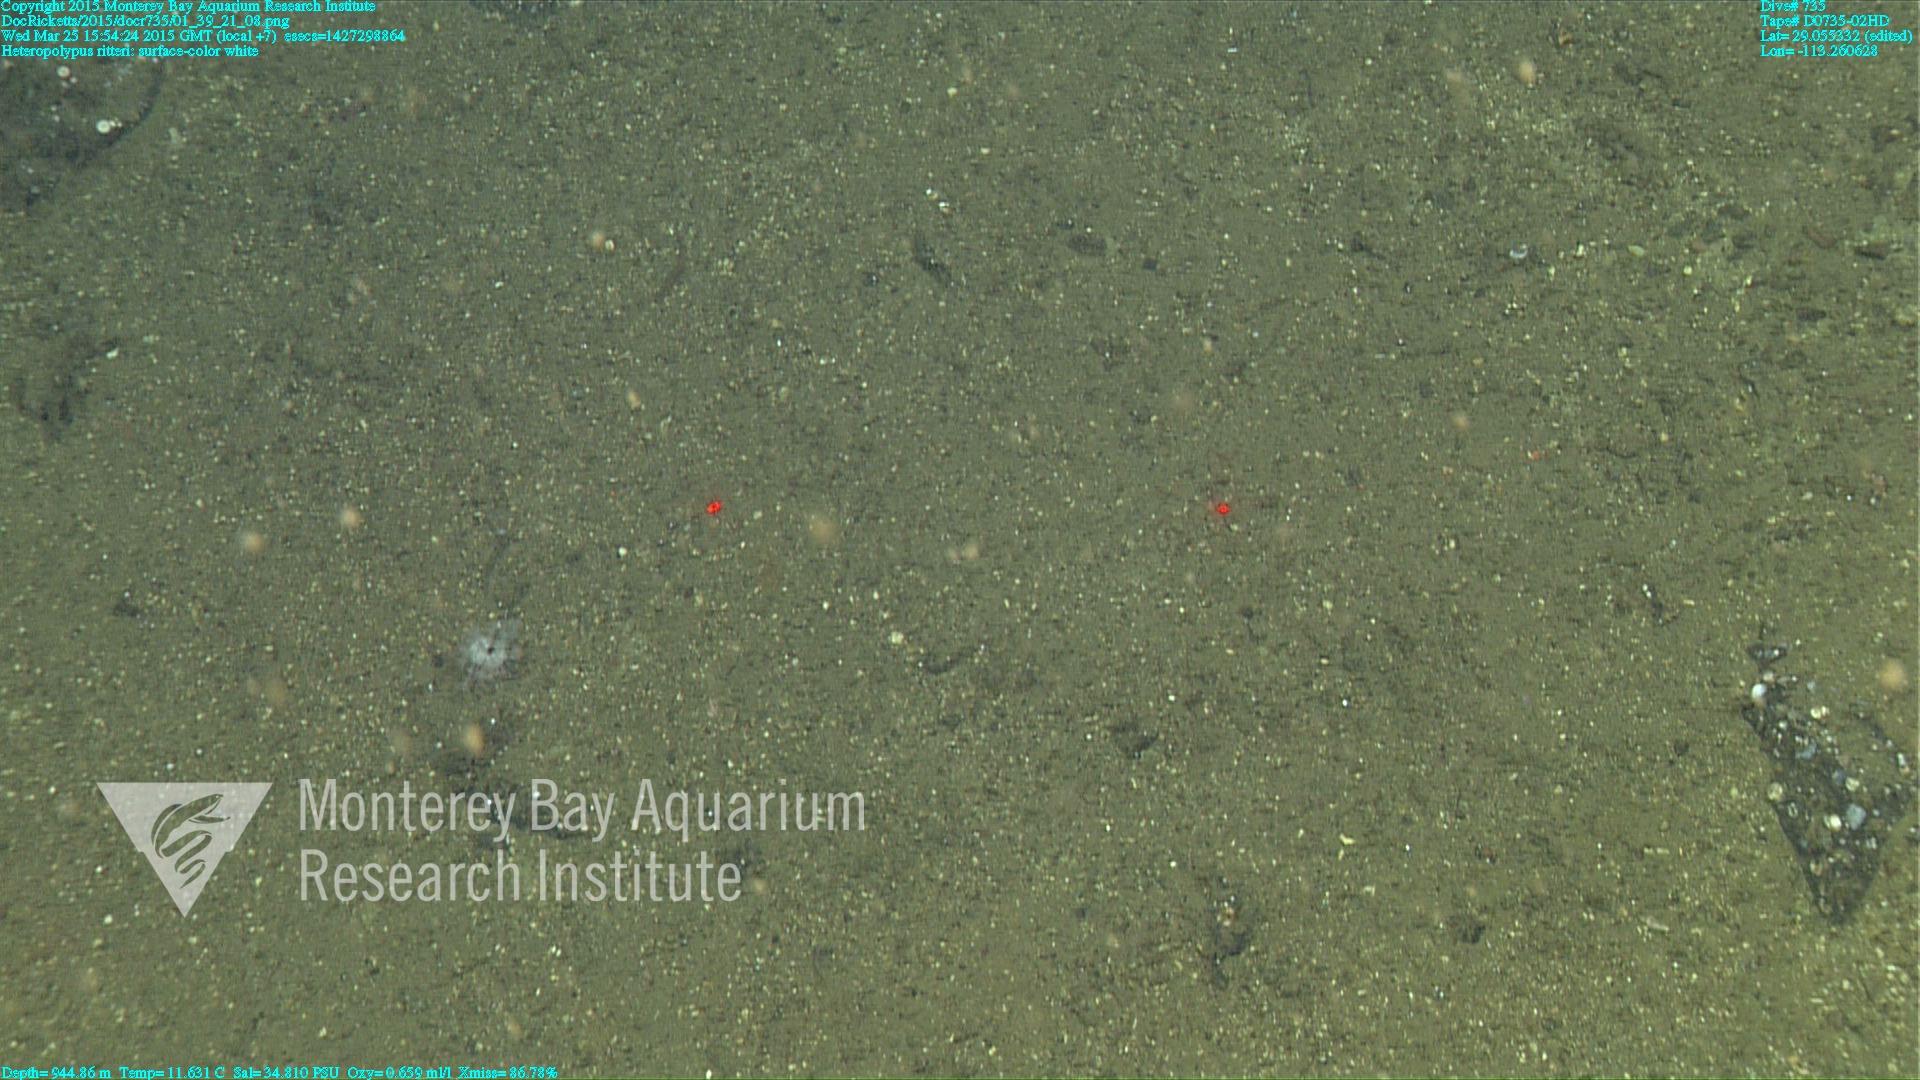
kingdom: Animalia
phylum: Cnidaria
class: Anthozoa
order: Scleralcyonacea
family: Coralliidae
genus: Heteropolypus
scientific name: Heteropolypus ritteri
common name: Ritter's soft coral
